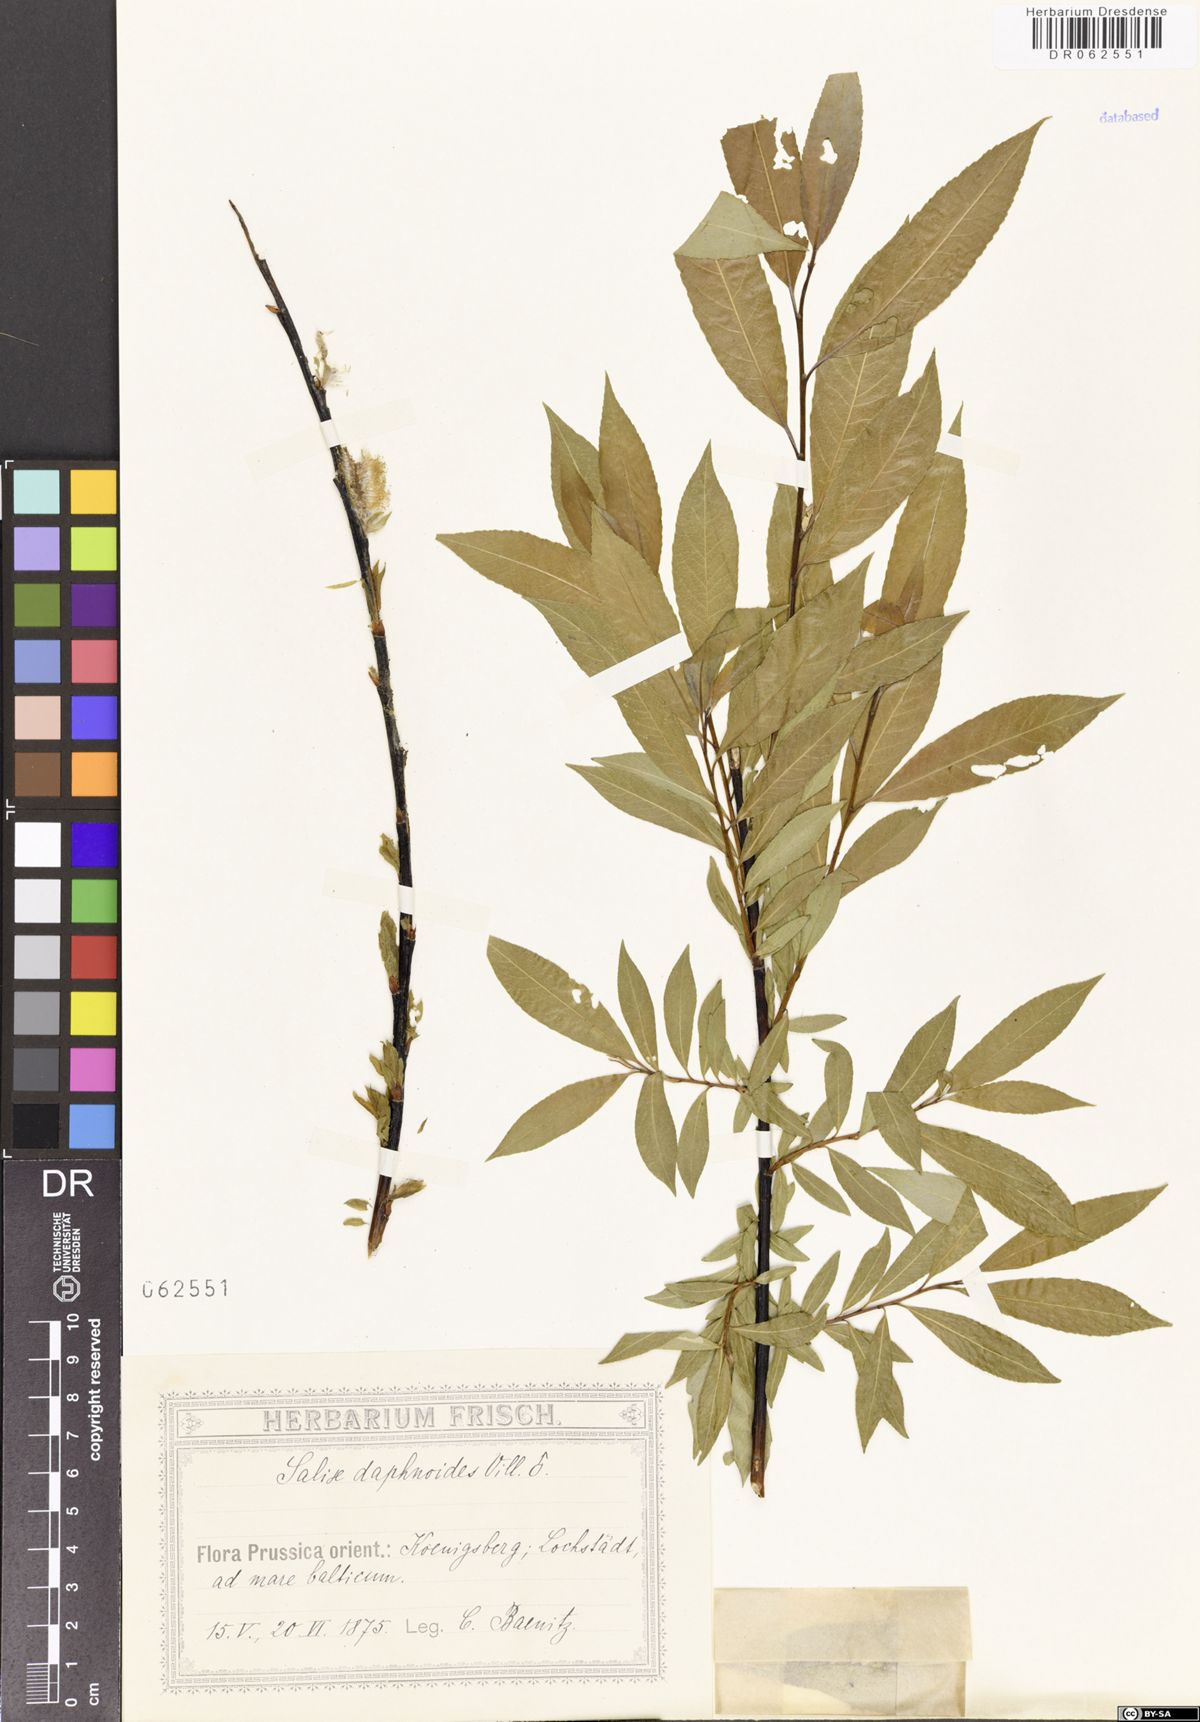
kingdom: Plantae
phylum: Tracheophyta
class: Magnoliopsida
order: Malpighiales
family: Salicaceae
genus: Salix
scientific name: Salix daphnoides
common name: European violet-willow
